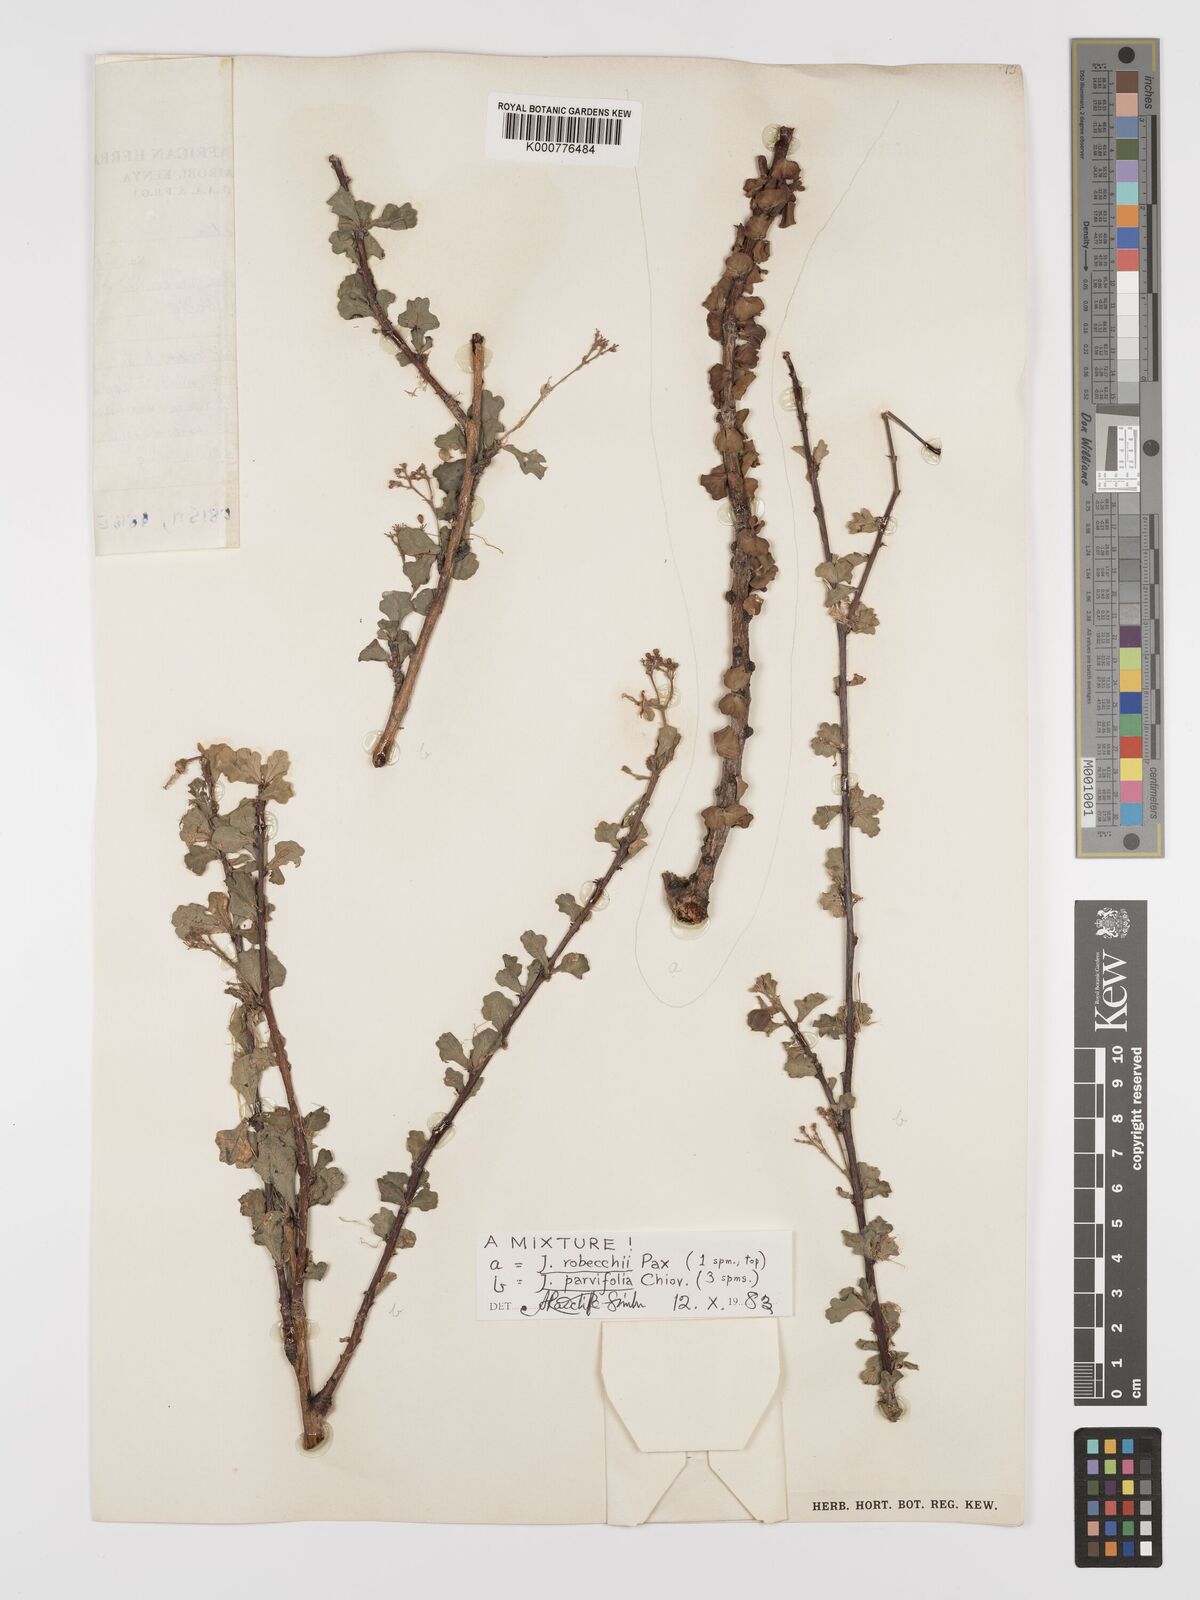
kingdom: Plantae
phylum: Tracheophyta
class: Magnoliopsida
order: Malpighiales
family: Euphorbiaceae
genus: Jatropha
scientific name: Jatropha robecchii
